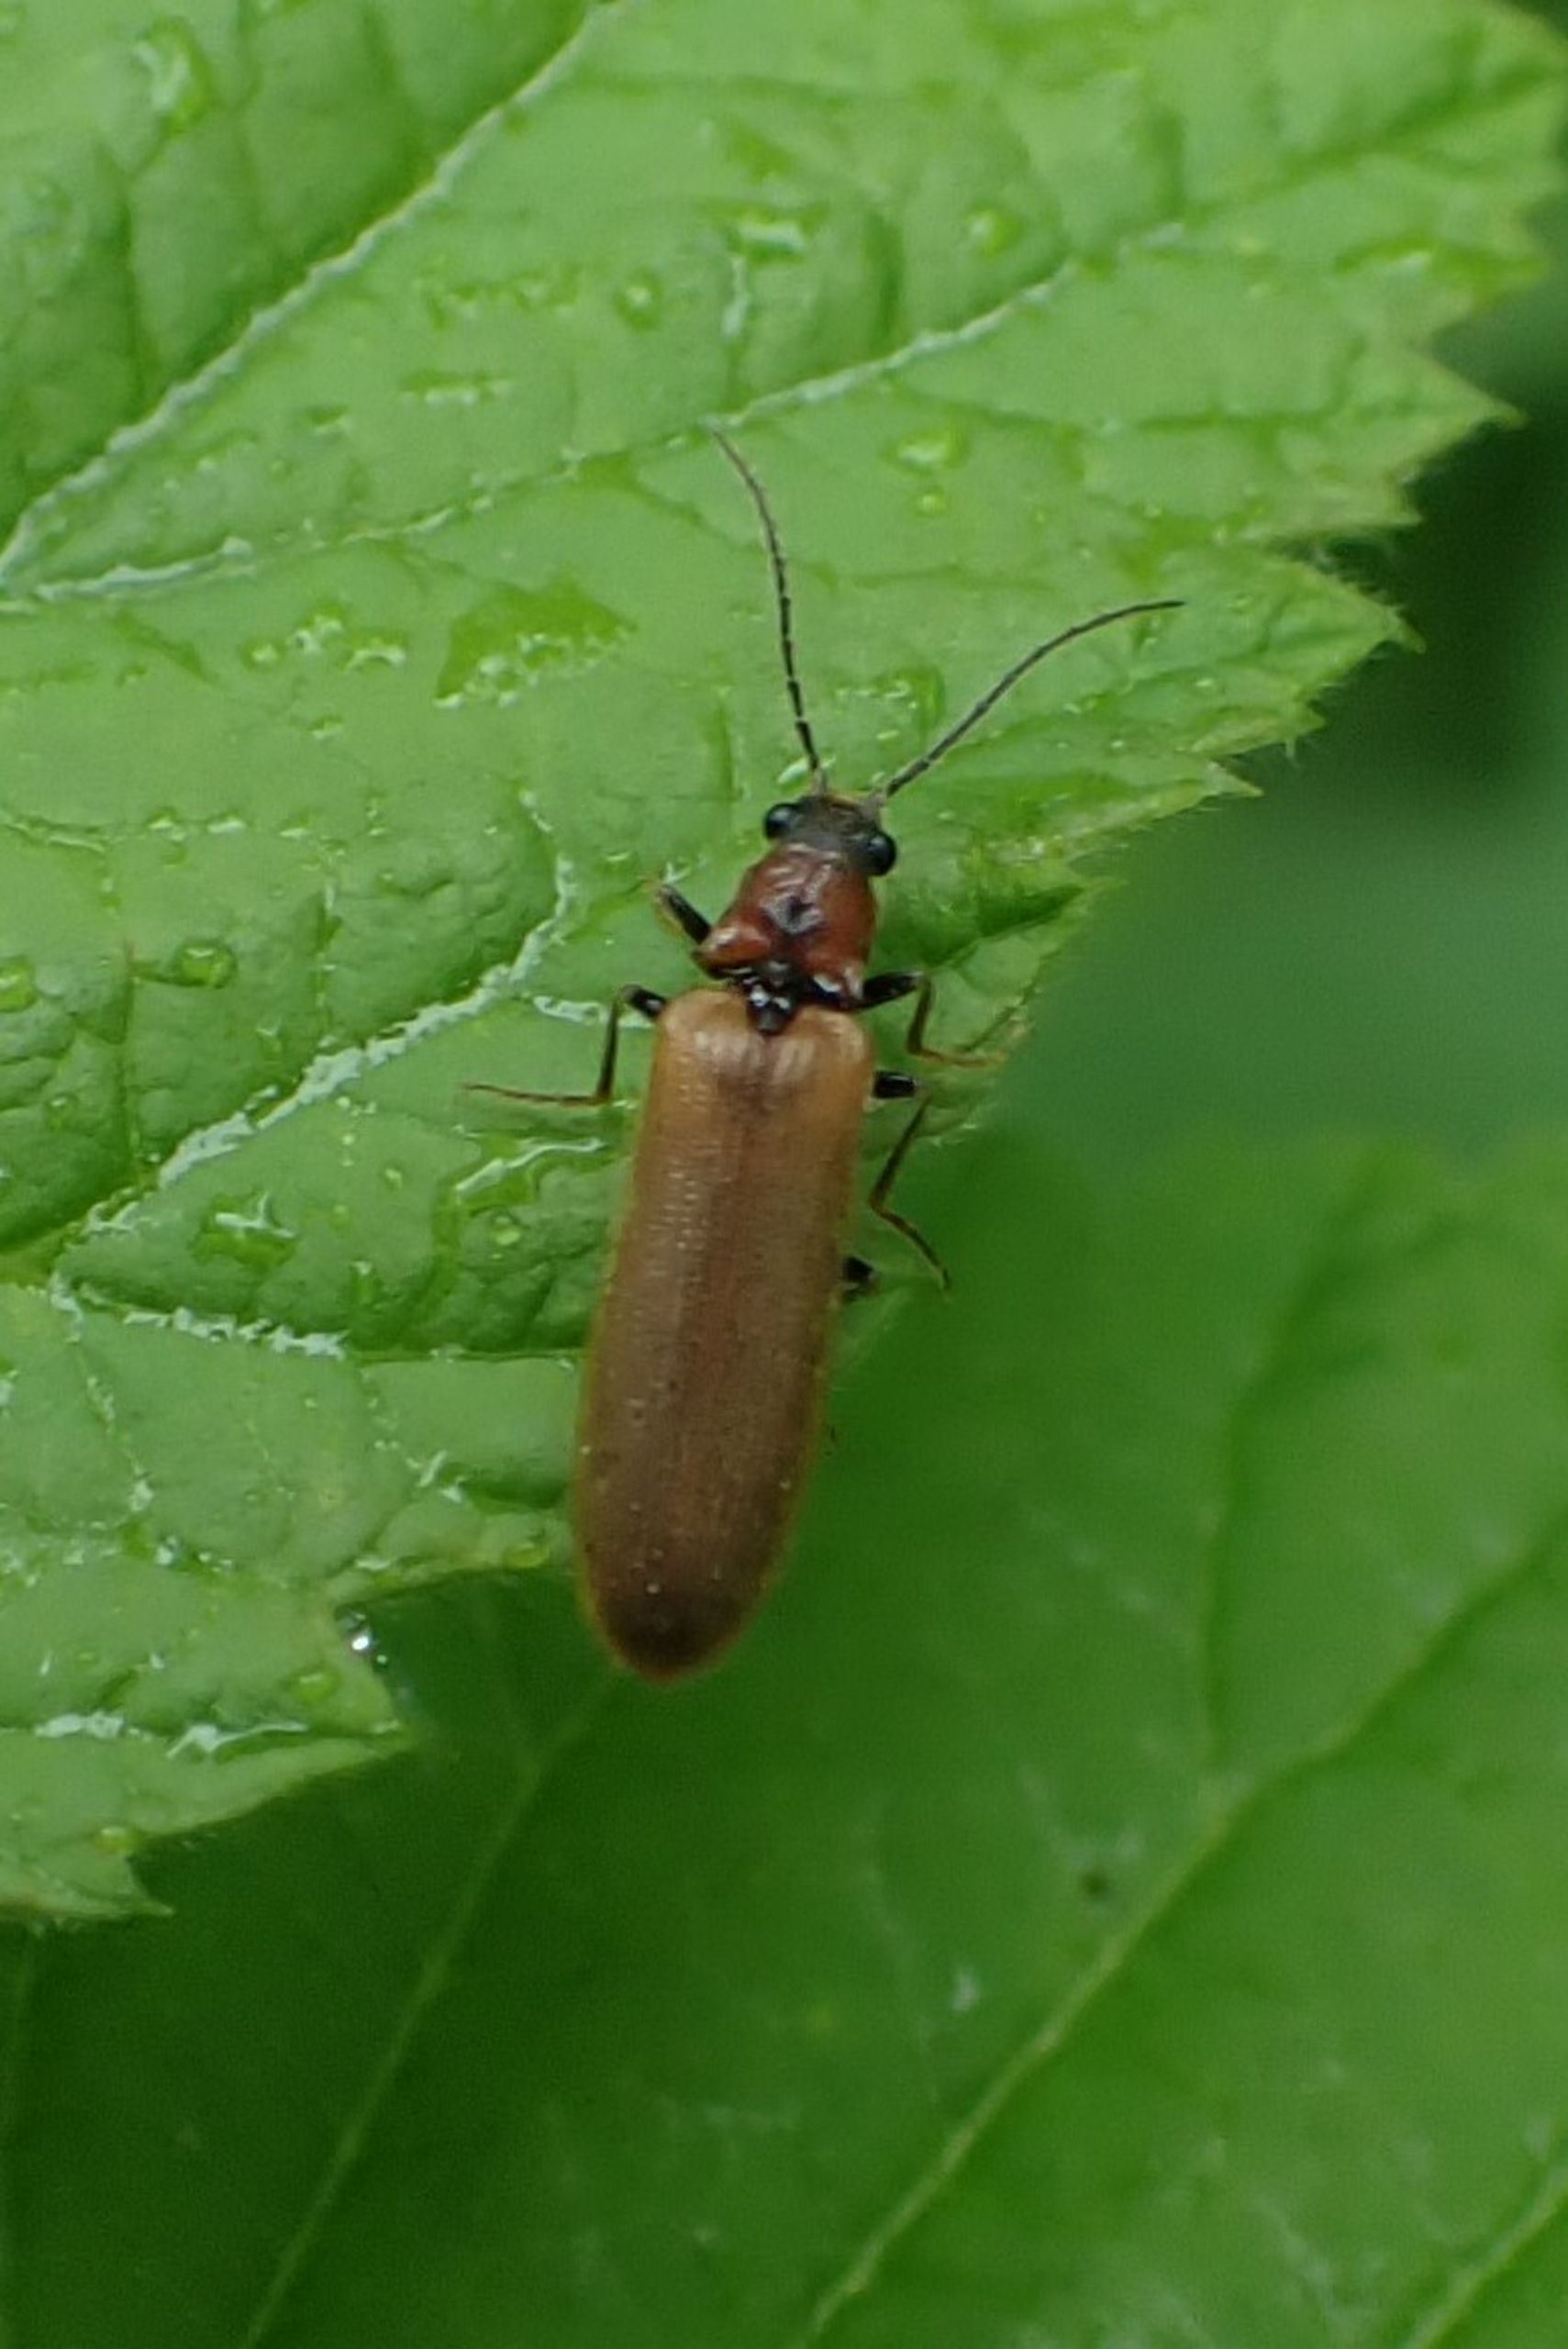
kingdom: Animalia
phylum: Arthropoda
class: Insecta
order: Coleoptera
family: Elateridae
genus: Denticollis
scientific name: Denticollis linearis
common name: Almindelig sirsmælder
